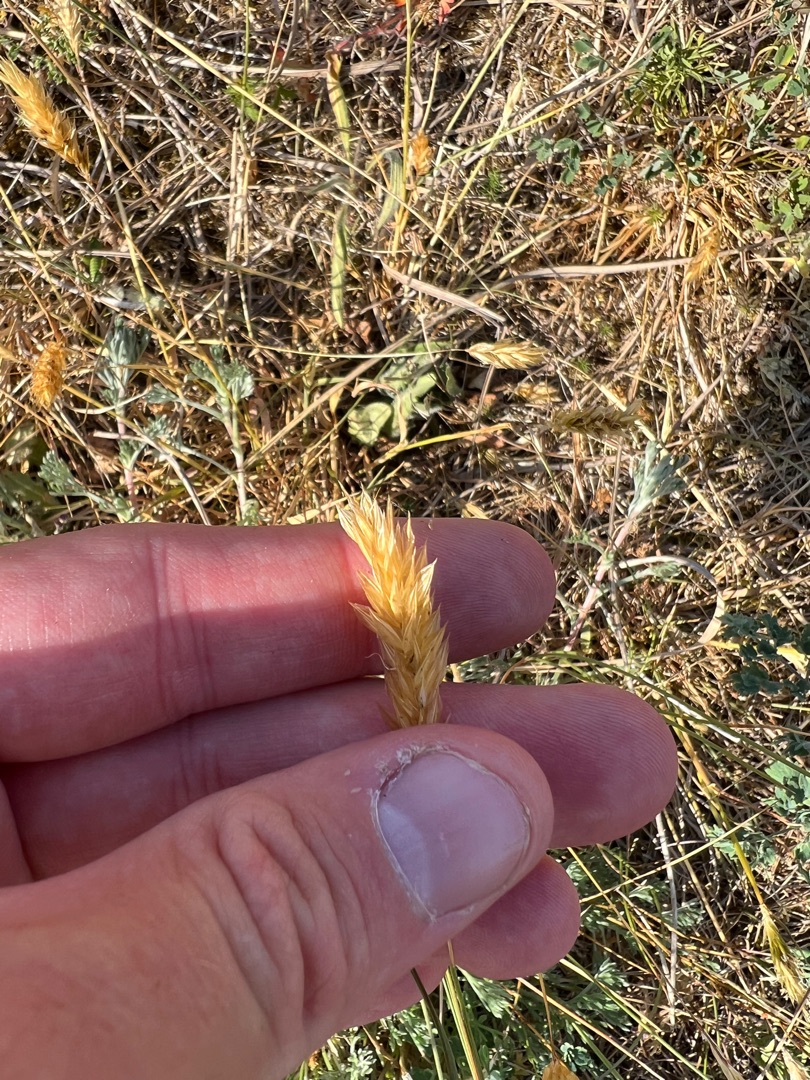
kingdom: Plantae
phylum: Tracheophyta
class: Liliopsida
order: Poales
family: Poaceae
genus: Anthoxanthum
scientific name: Anthoxanthum odoratum
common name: Vellugtende gulaks
